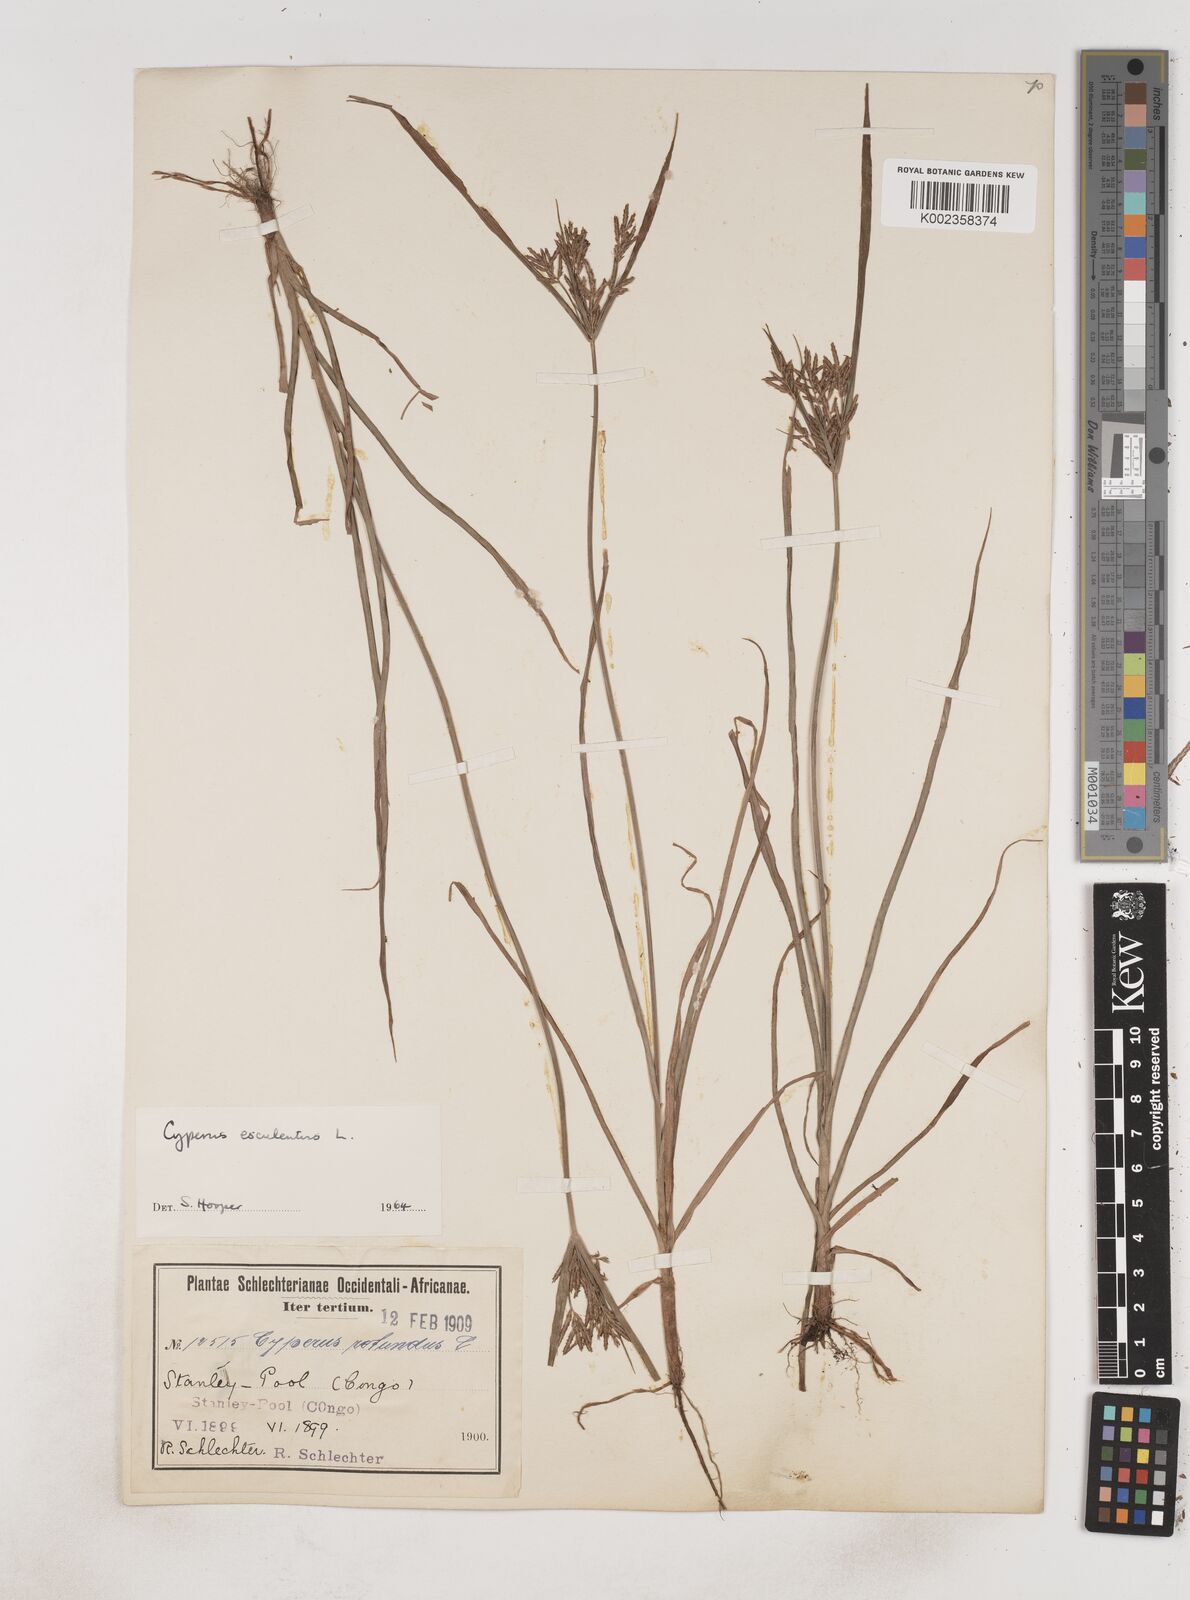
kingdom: Plantae
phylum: Tracheophyta
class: Liliopsida
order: Poales
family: Cyperaceae
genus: Cyperus
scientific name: Cyperus esculentus
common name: Yellow nutsedge
